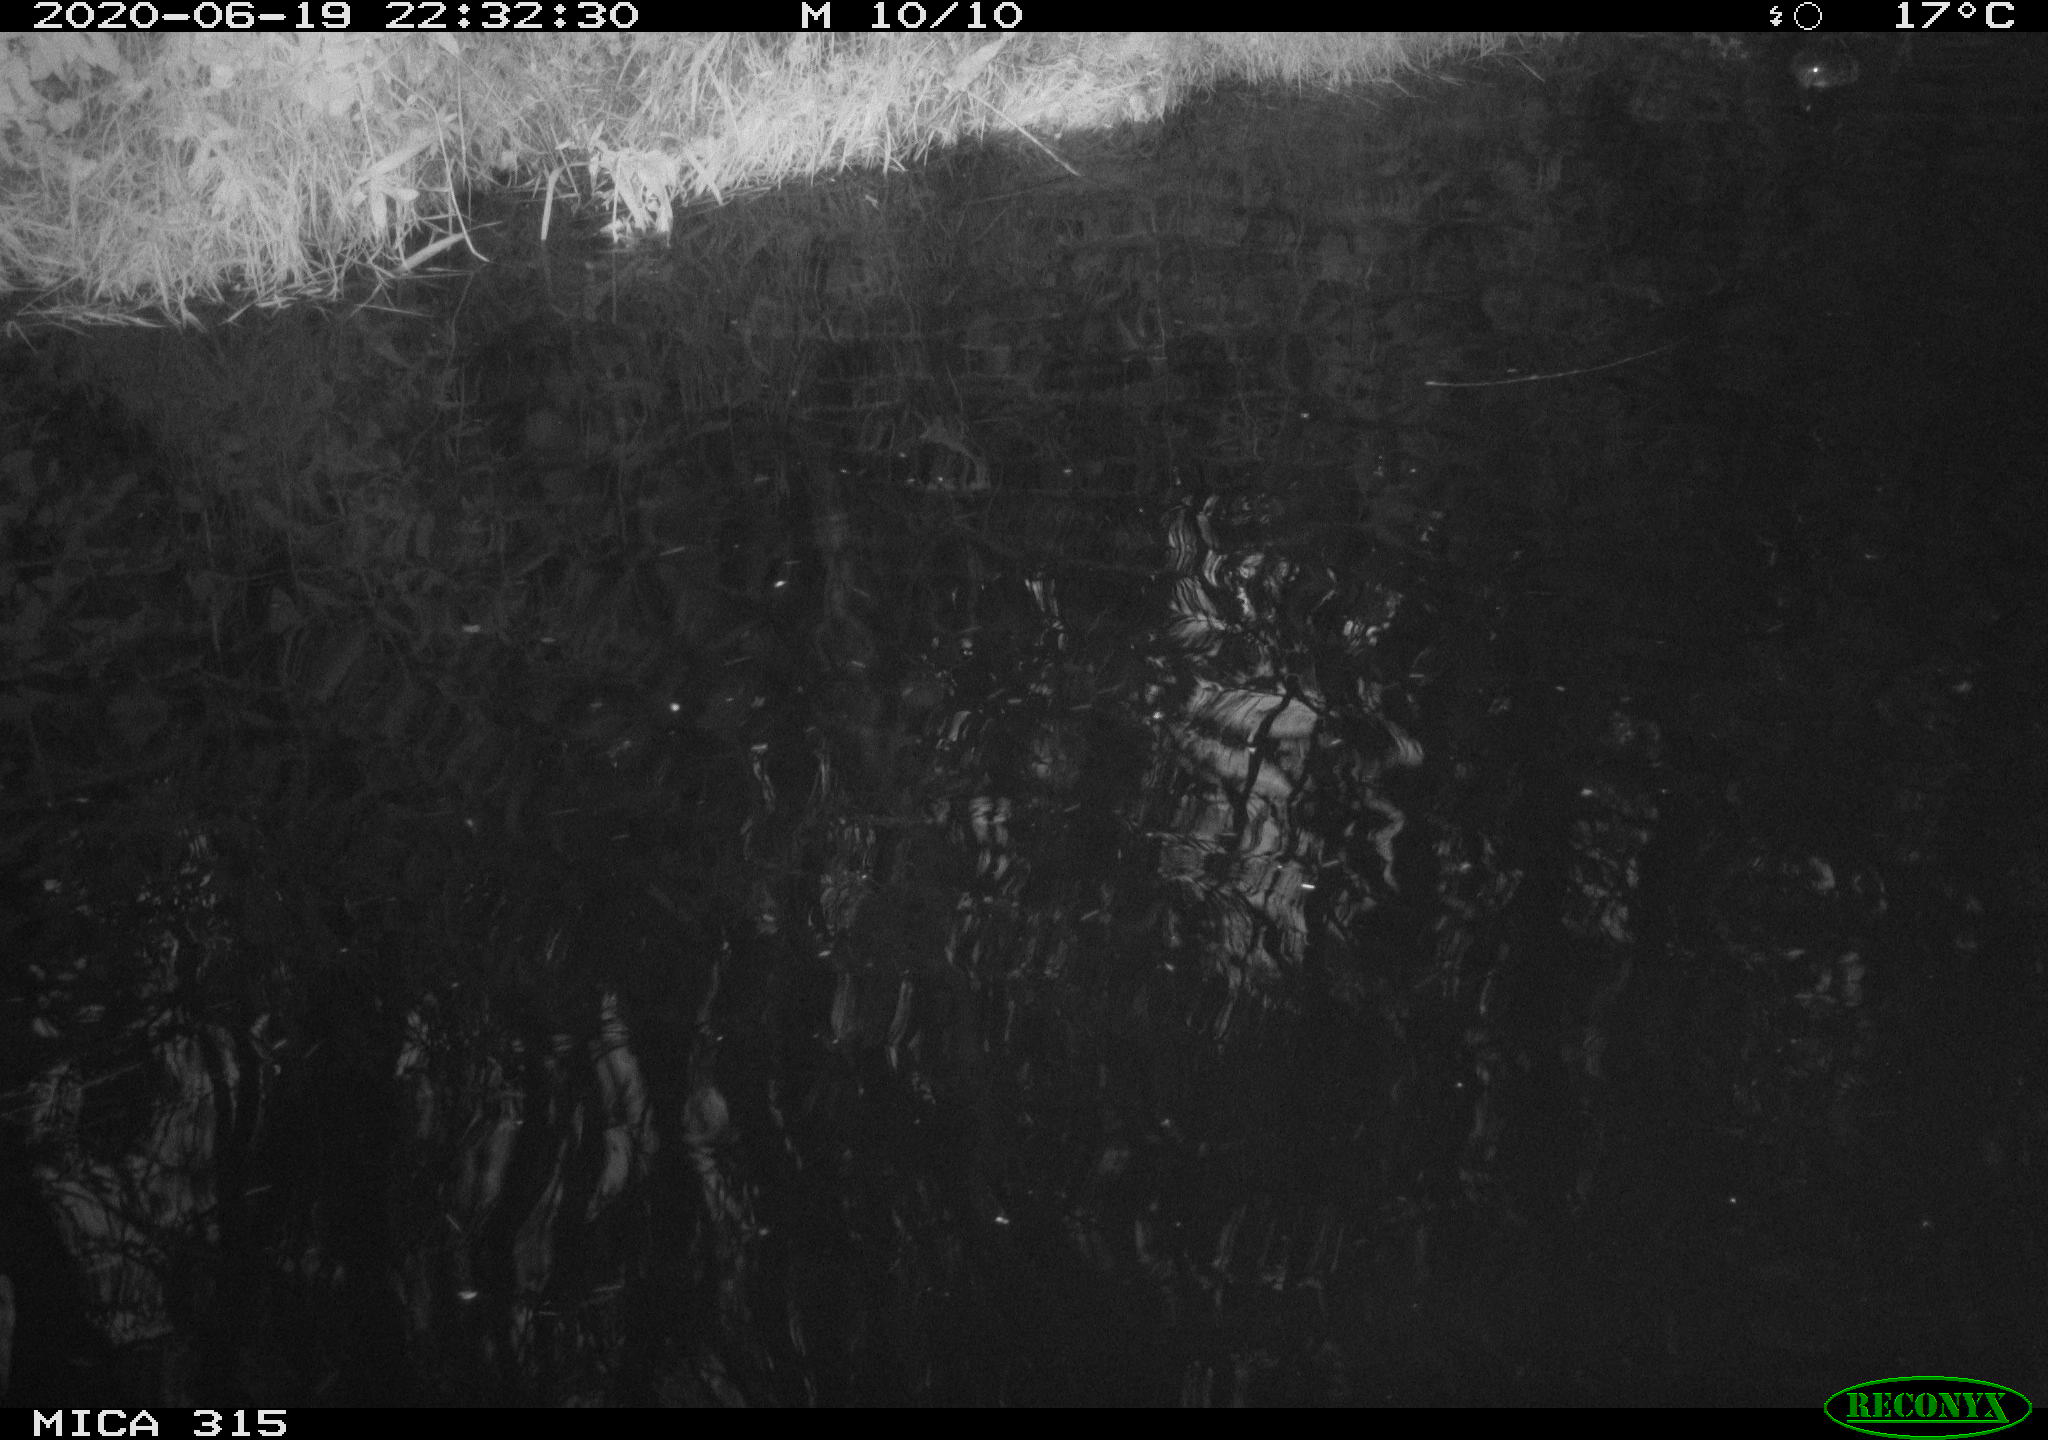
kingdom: Animalia
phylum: Chordata
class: Aves
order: Anseriformes
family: Anatidae
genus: Anas
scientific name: Anas platyrhynchos
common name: Mallard
